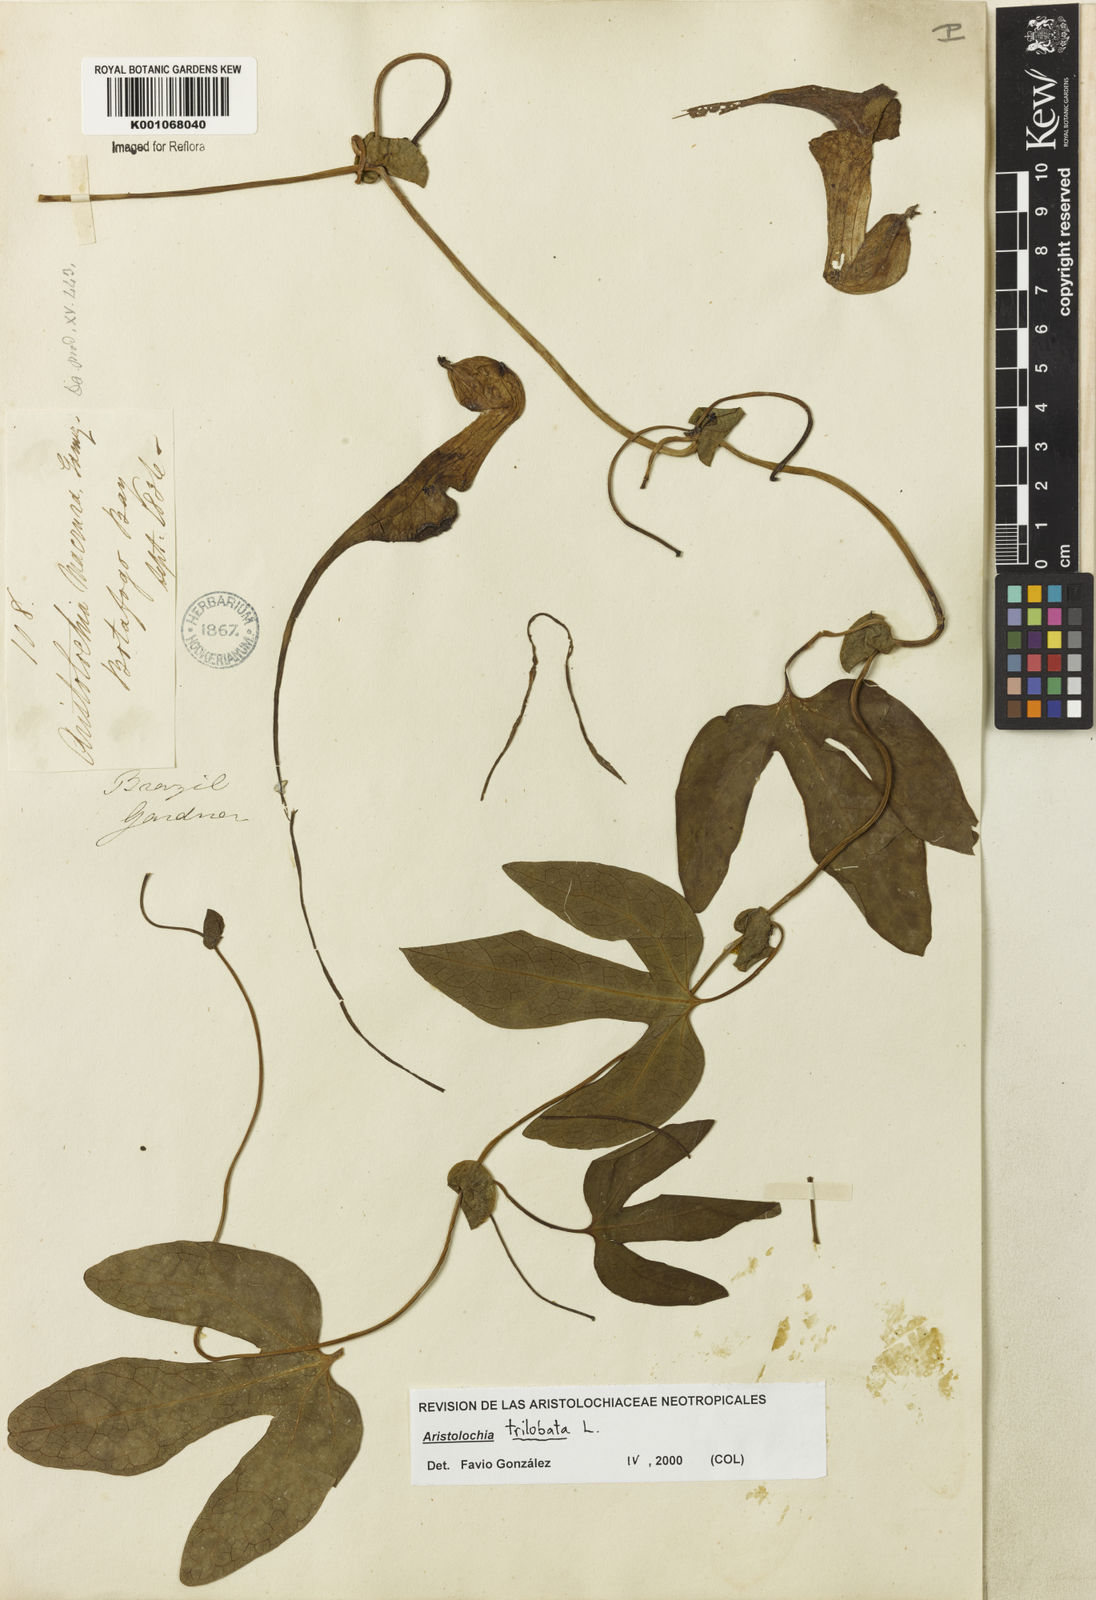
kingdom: Plantae
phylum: Tracheophyta
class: Magnoliopsida
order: Piperales
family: Aristolochiaceae
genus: Aristolochia
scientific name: Aristolochia trilobata
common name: Dutchman's pipe
